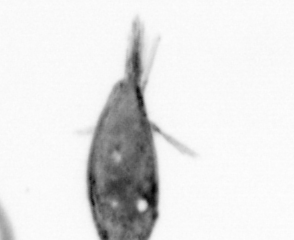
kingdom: Animalia
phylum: Arthropoda
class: Maxillopoda
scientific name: Maxillopoda
